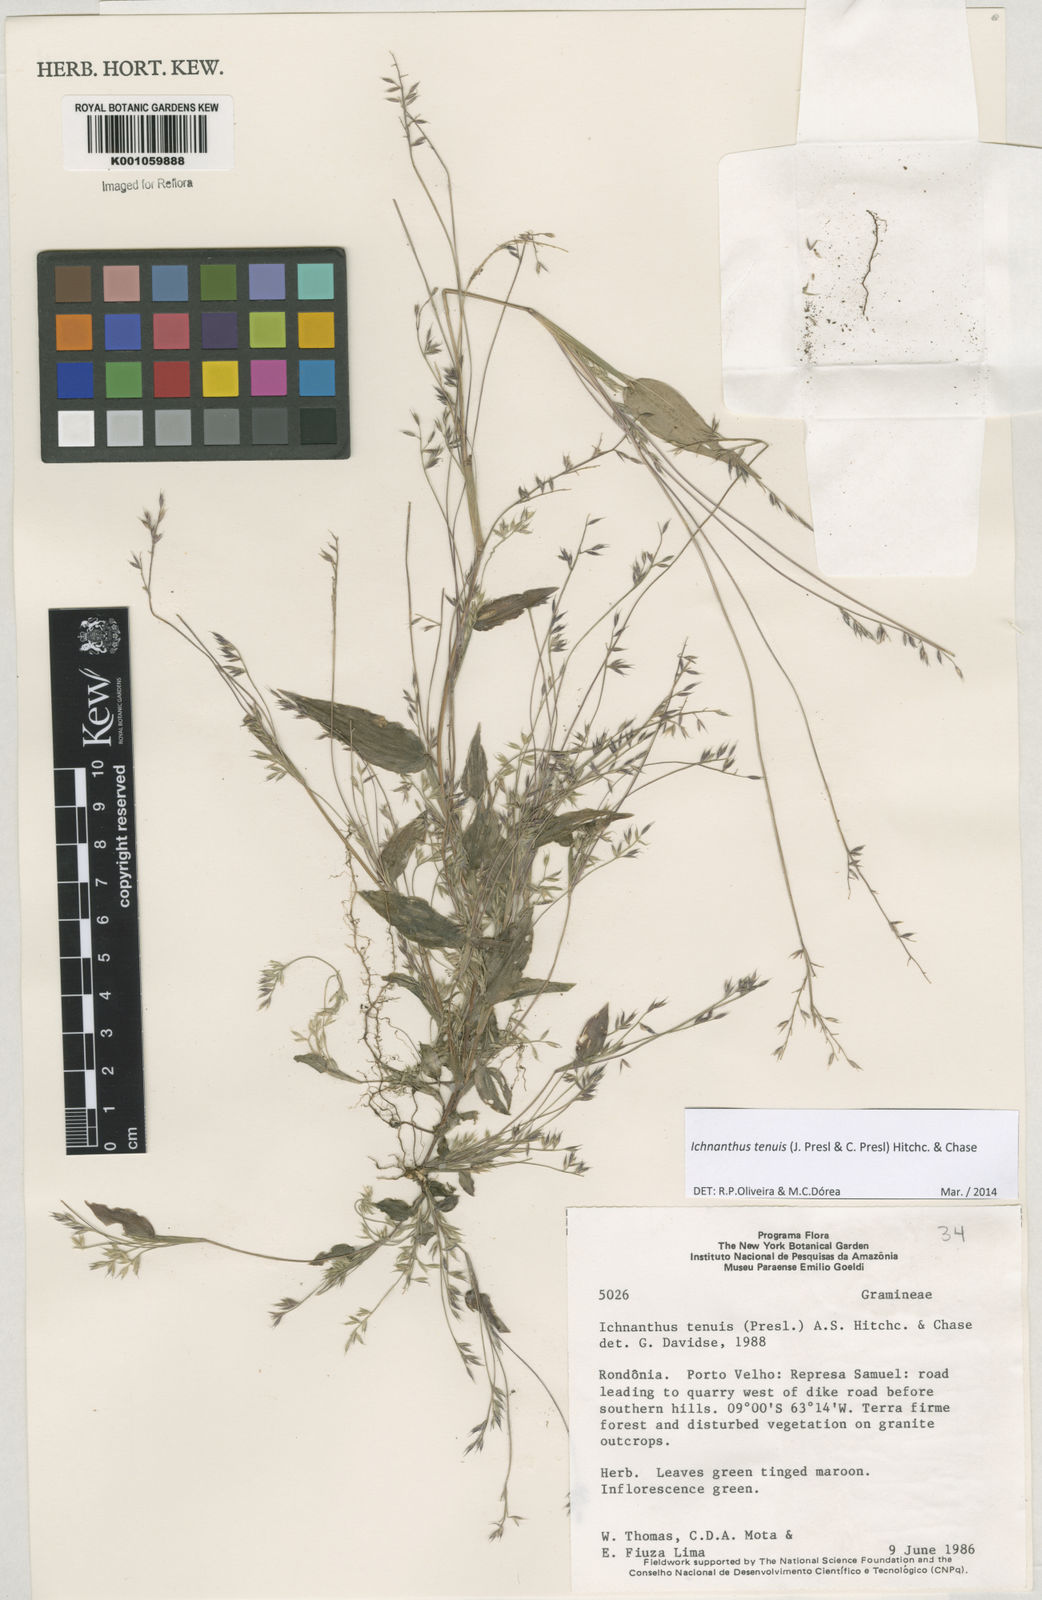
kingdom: Plantae
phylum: Tracheophyta
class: Liliopsida
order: Poales
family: Poaceae
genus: Ichnanthus
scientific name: Ichnanthus tenuis
